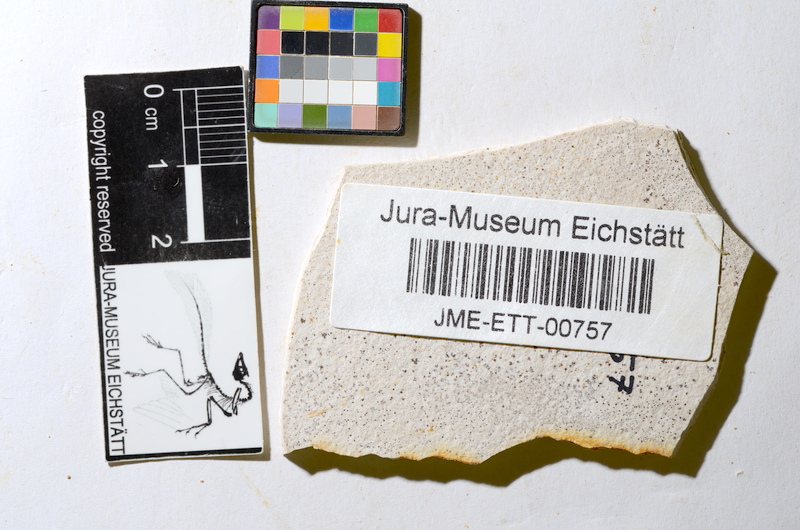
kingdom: Animalia
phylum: Chordata
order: Salmoniformes
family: Orthogonikleithridae
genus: Orthogonikleithrus
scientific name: Orthogonikleithrus hoelli
